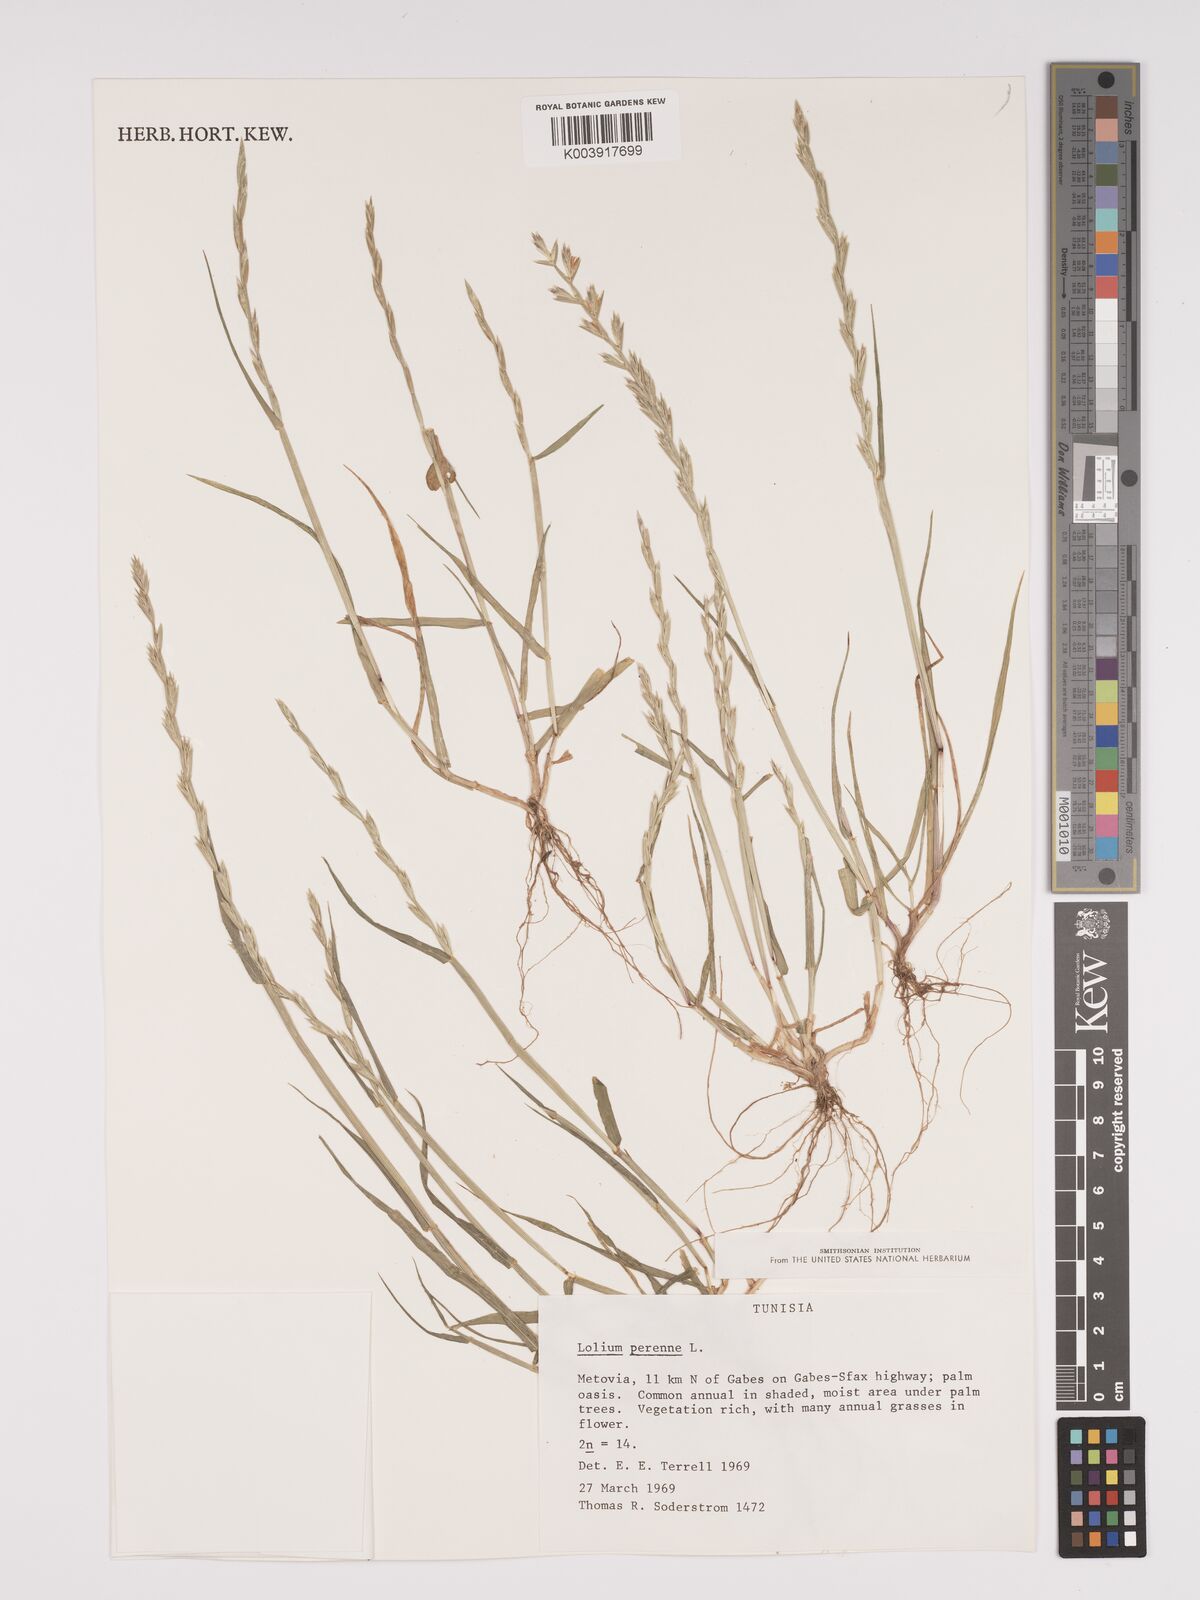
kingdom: Plantae
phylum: Tracheophyta
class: Liliopsida
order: Poales
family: Poaceae
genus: Lolium
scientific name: Lolium perenne
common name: Perennial ryegrass
